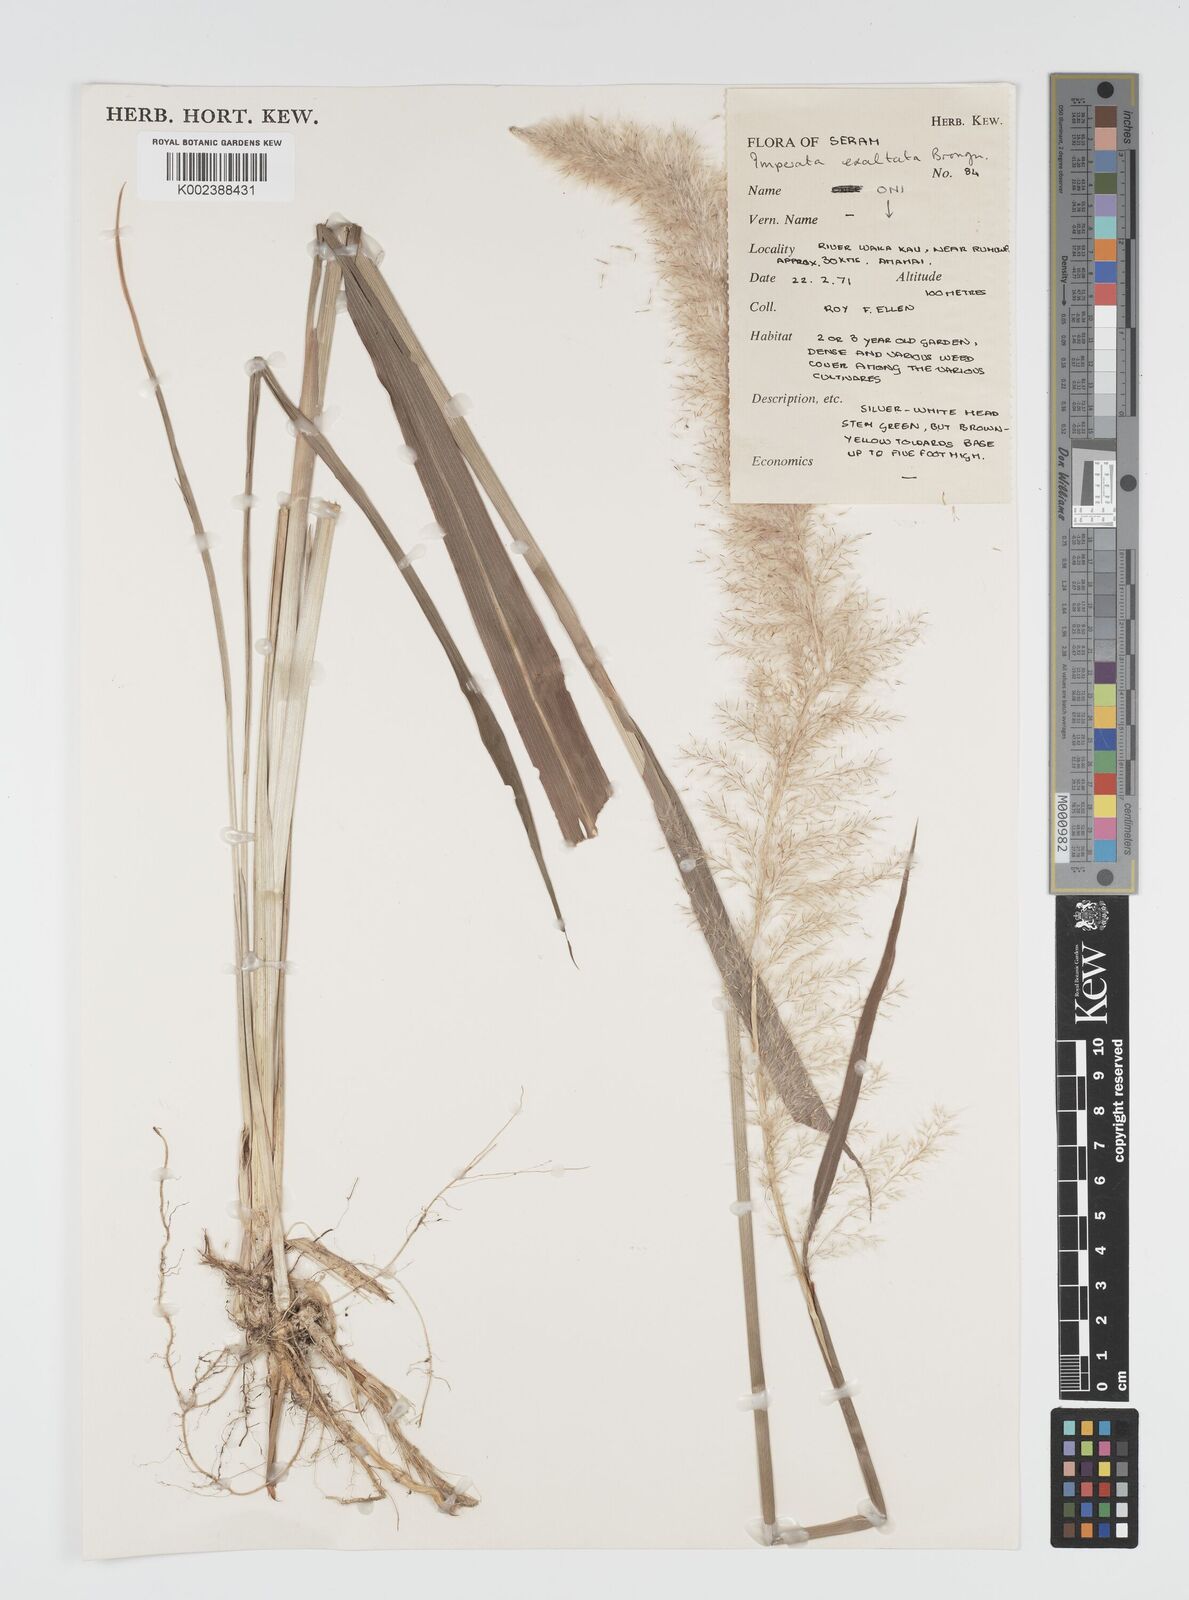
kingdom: Plantae
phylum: Tracheophyta
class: Liliopsida
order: Poales
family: Poaceae
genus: Imperata
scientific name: Imperata conferta
